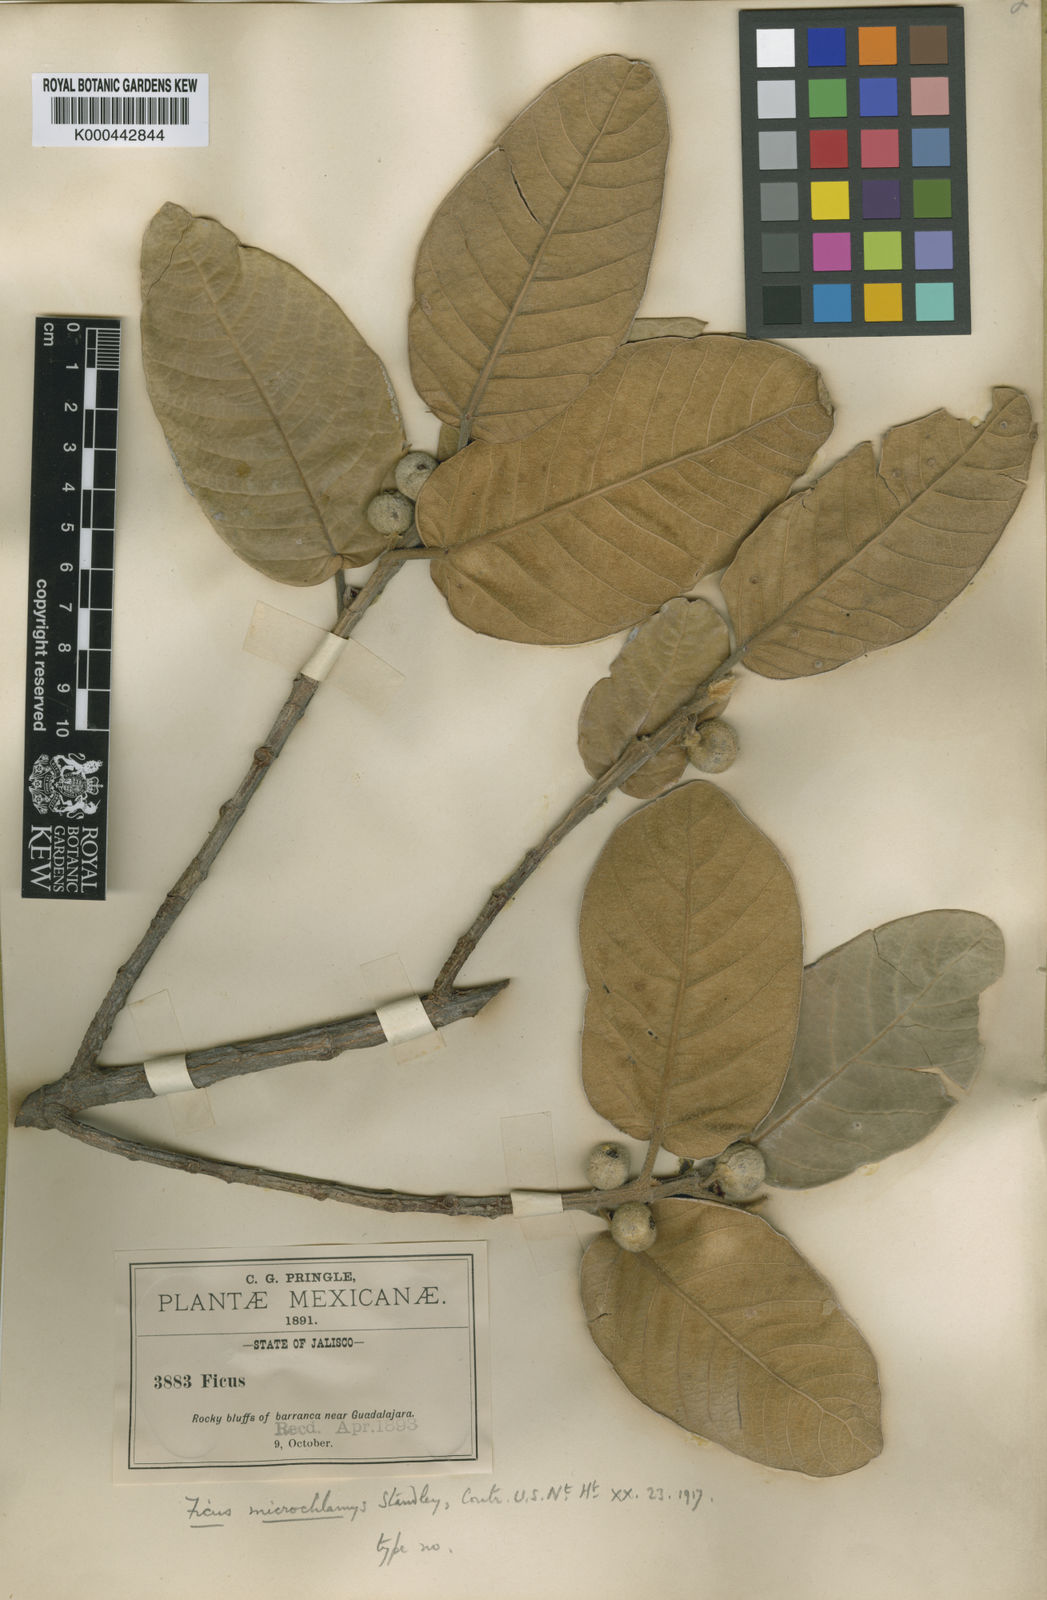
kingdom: Plantae
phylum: Tracheophyta
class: Magnoliopsida
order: Rosales
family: Moraceae
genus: Ficus
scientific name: Ficus velutina
